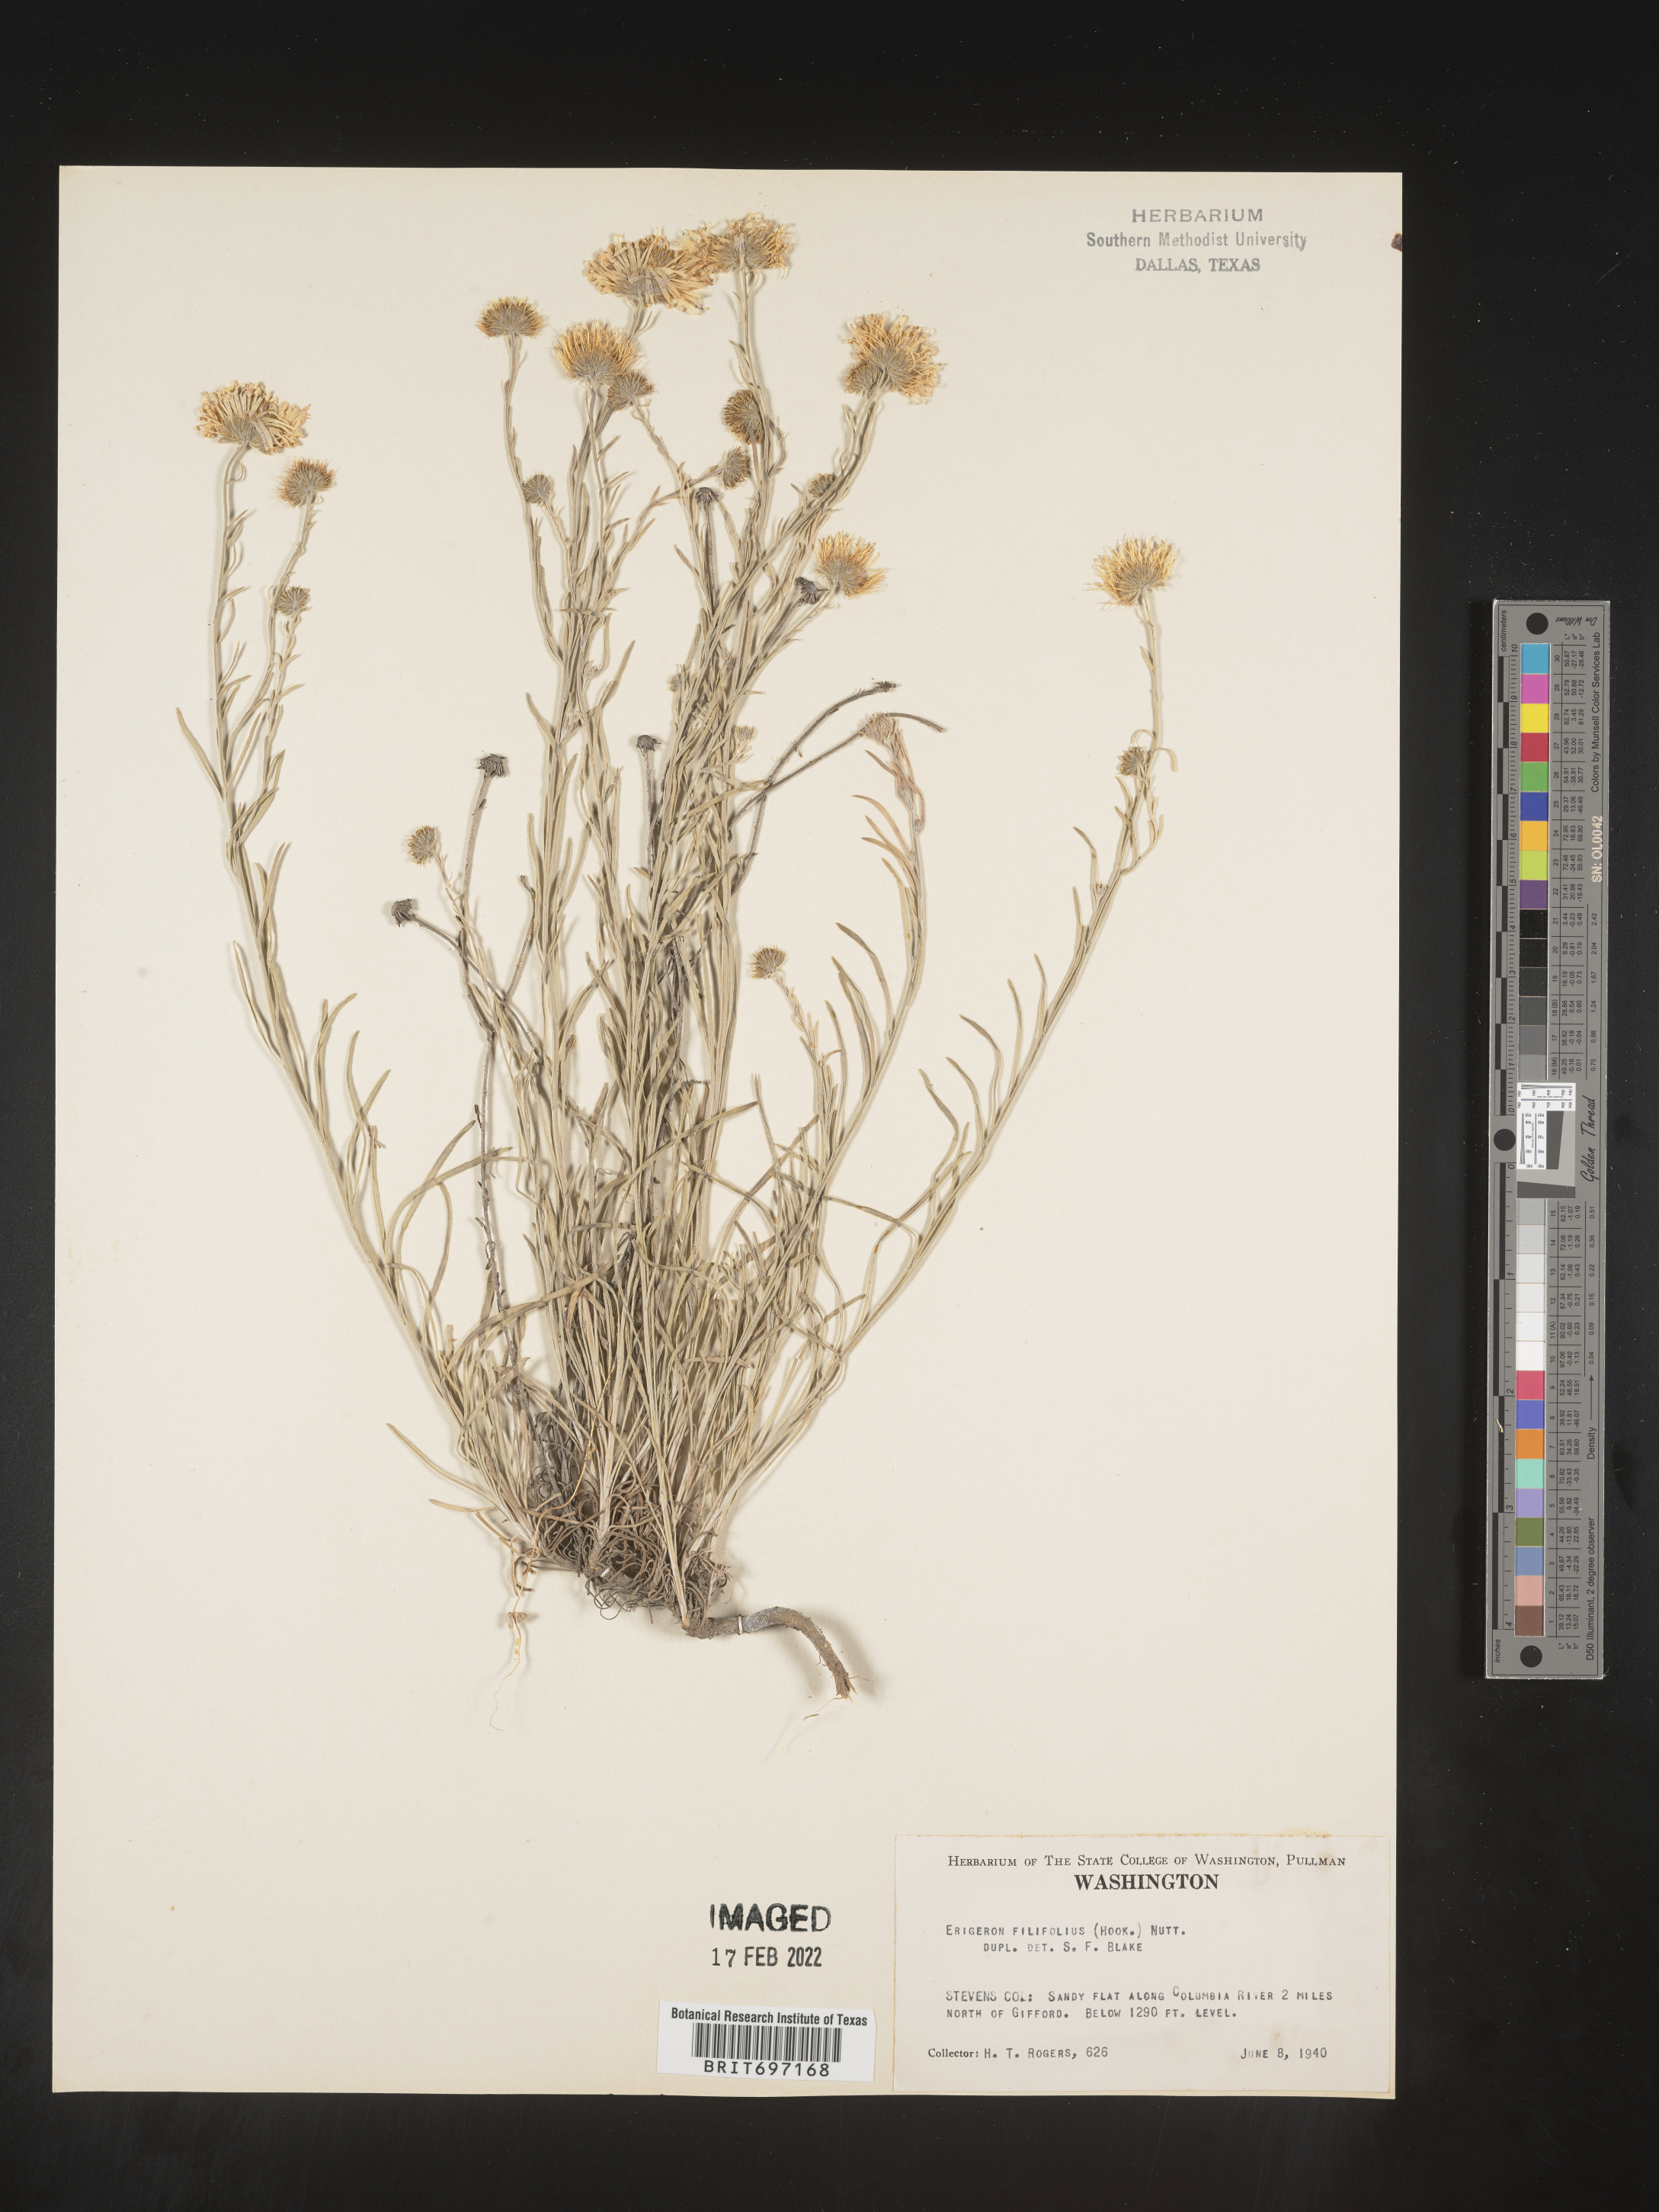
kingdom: Plantae
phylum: Tracheophyta
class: Magnoliopsida
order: Asterales
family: Asteraceae
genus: Erigeron
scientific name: Erigeron filifolius
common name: Threadleaf fleabane
